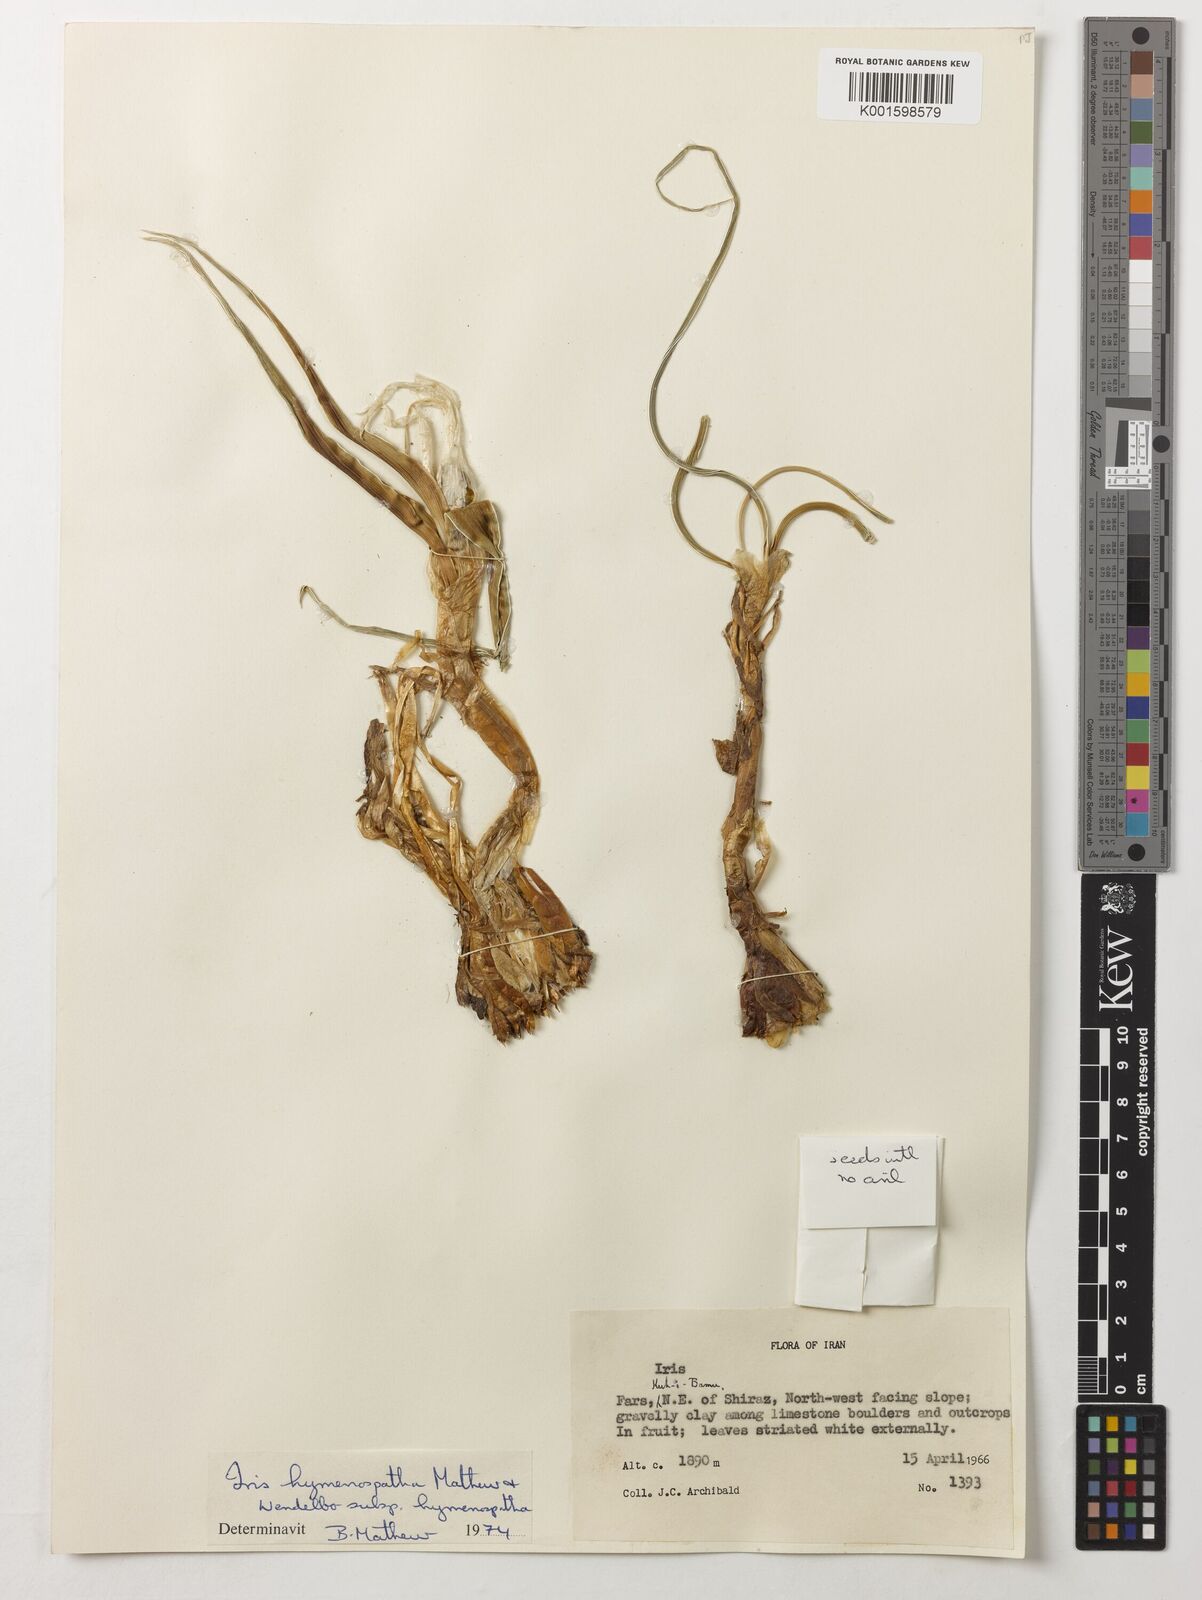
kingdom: Plantae
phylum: Tracheophyta
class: Liliopsida
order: Asparagales
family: Iridaceae
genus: Iris
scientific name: Iris hymenospatha
